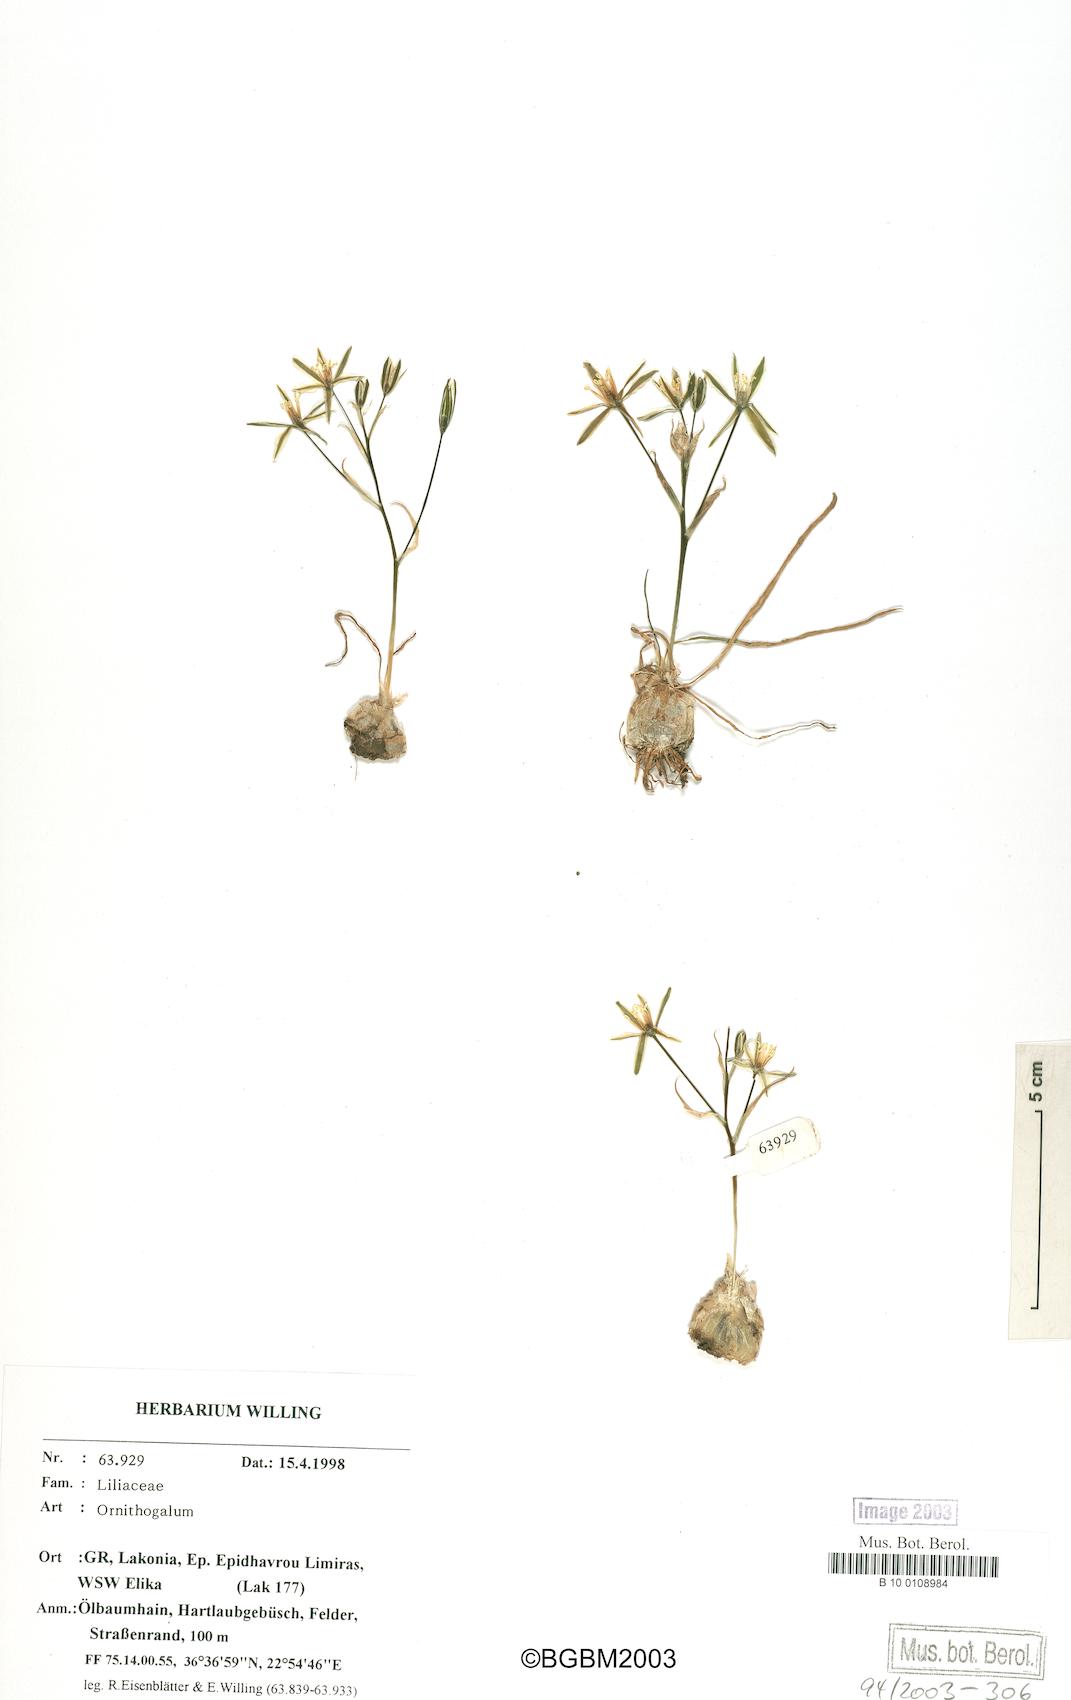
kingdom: Plantae
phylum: Tracheophyta
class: Liliopsida
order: Asparagales
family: Asparagaceae
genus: Ornithogalum
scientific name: Ornithogalum
